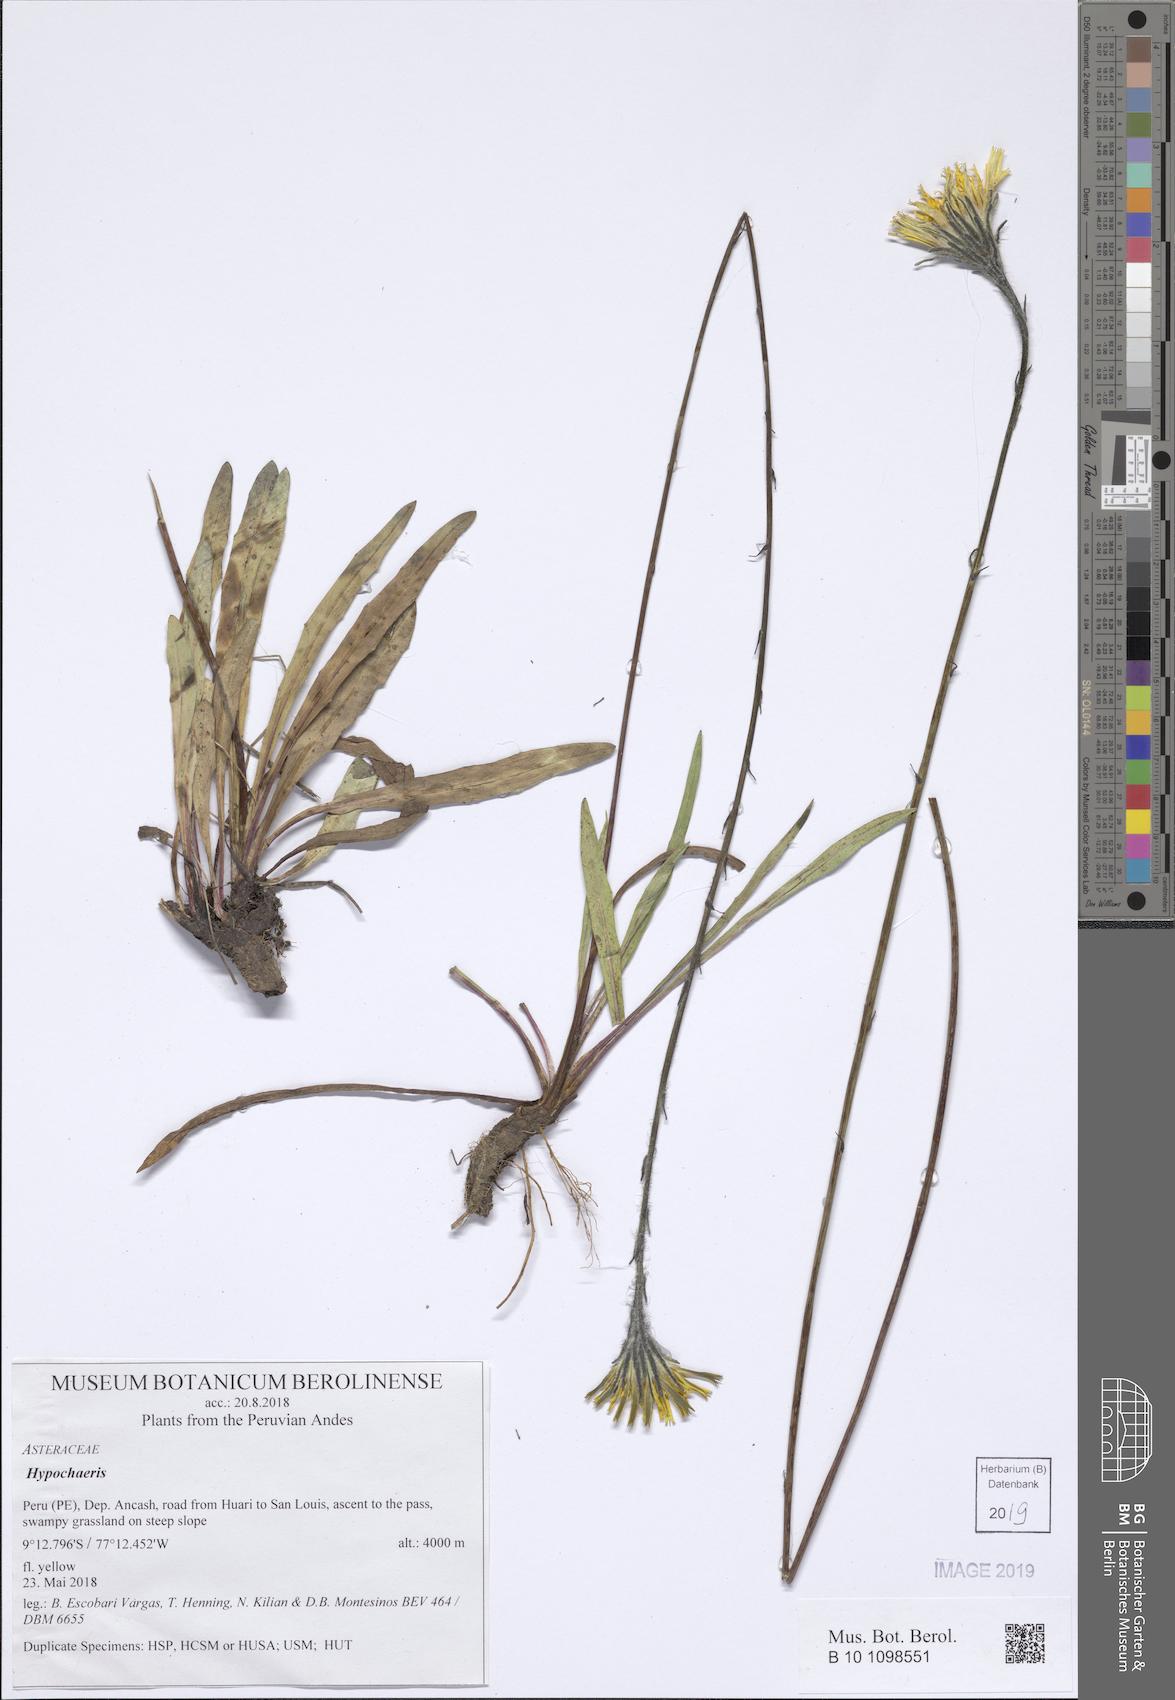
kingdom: Plantae
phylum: Tracheophyta
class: Magnoliopsida
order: Asterales
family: Asteraceae
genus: Hypochaeris
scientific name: Hypochaeris
